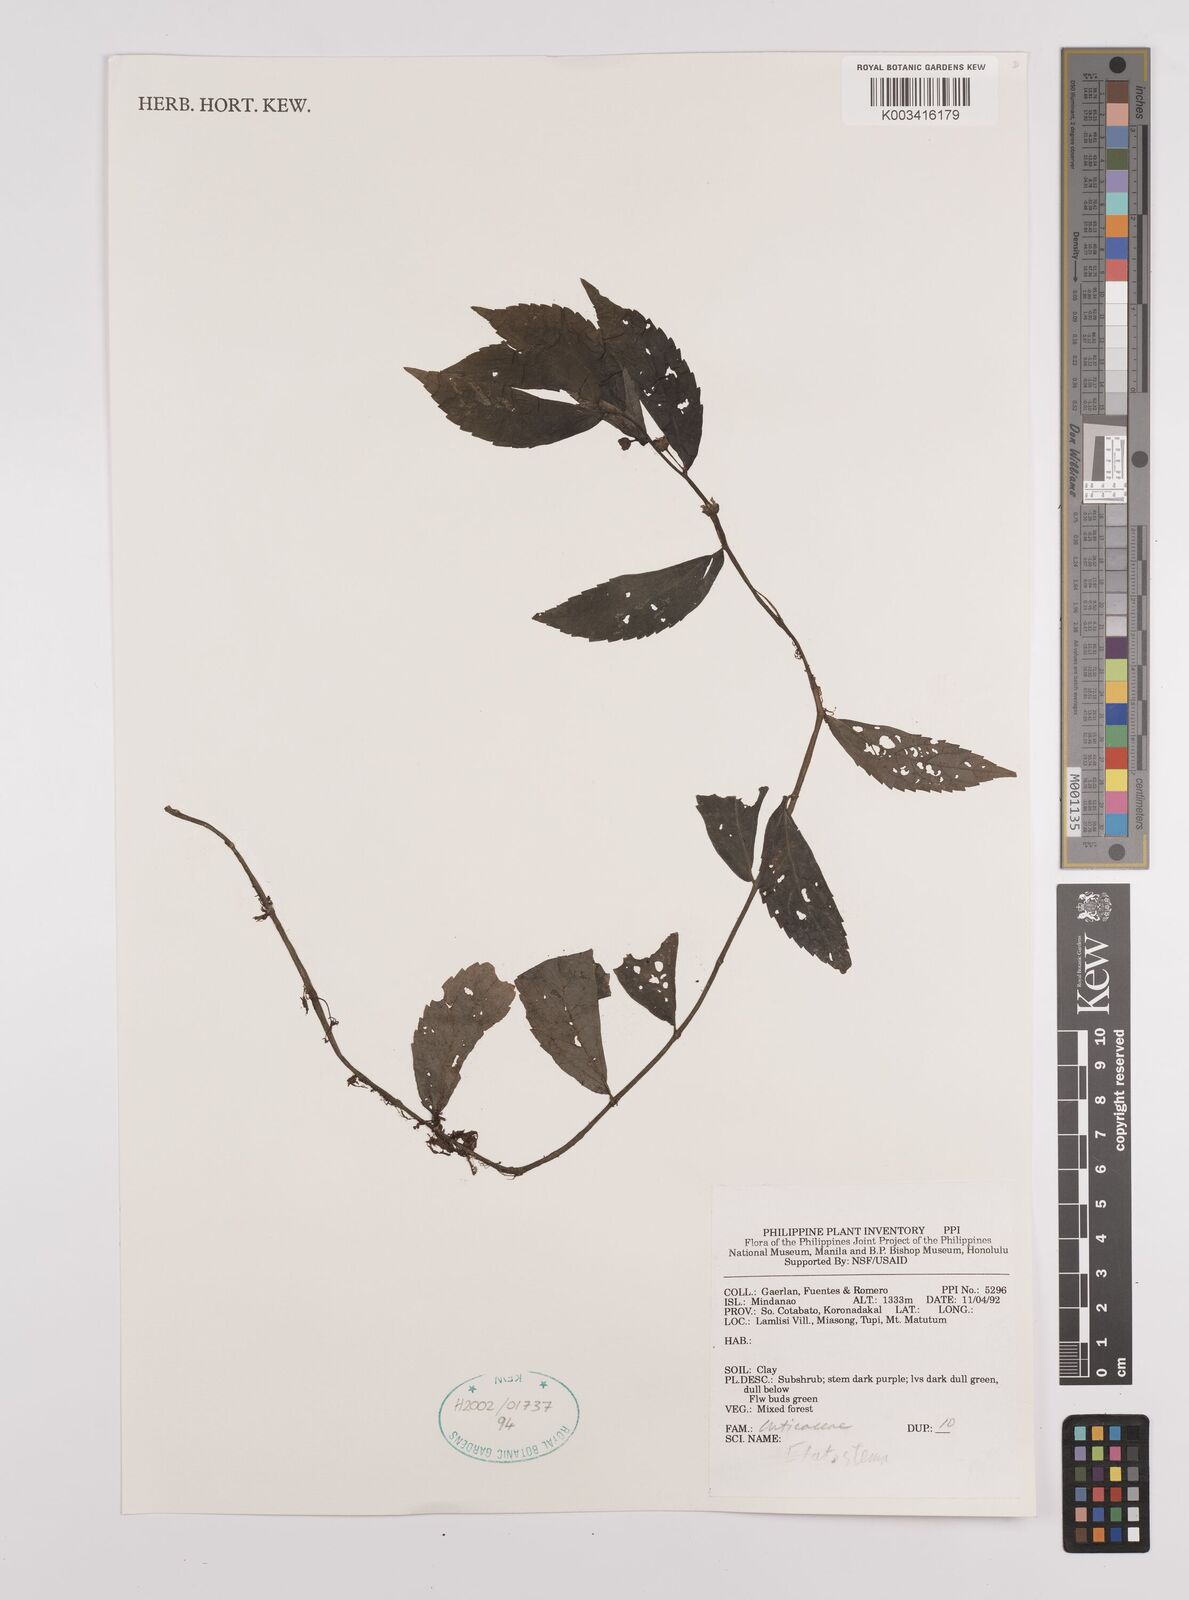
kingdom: Plantae
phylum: Tracheophyta
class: Magnoliopsida
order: Rosales
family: Urticaceae
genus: Elatostema
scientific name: Elatostema
